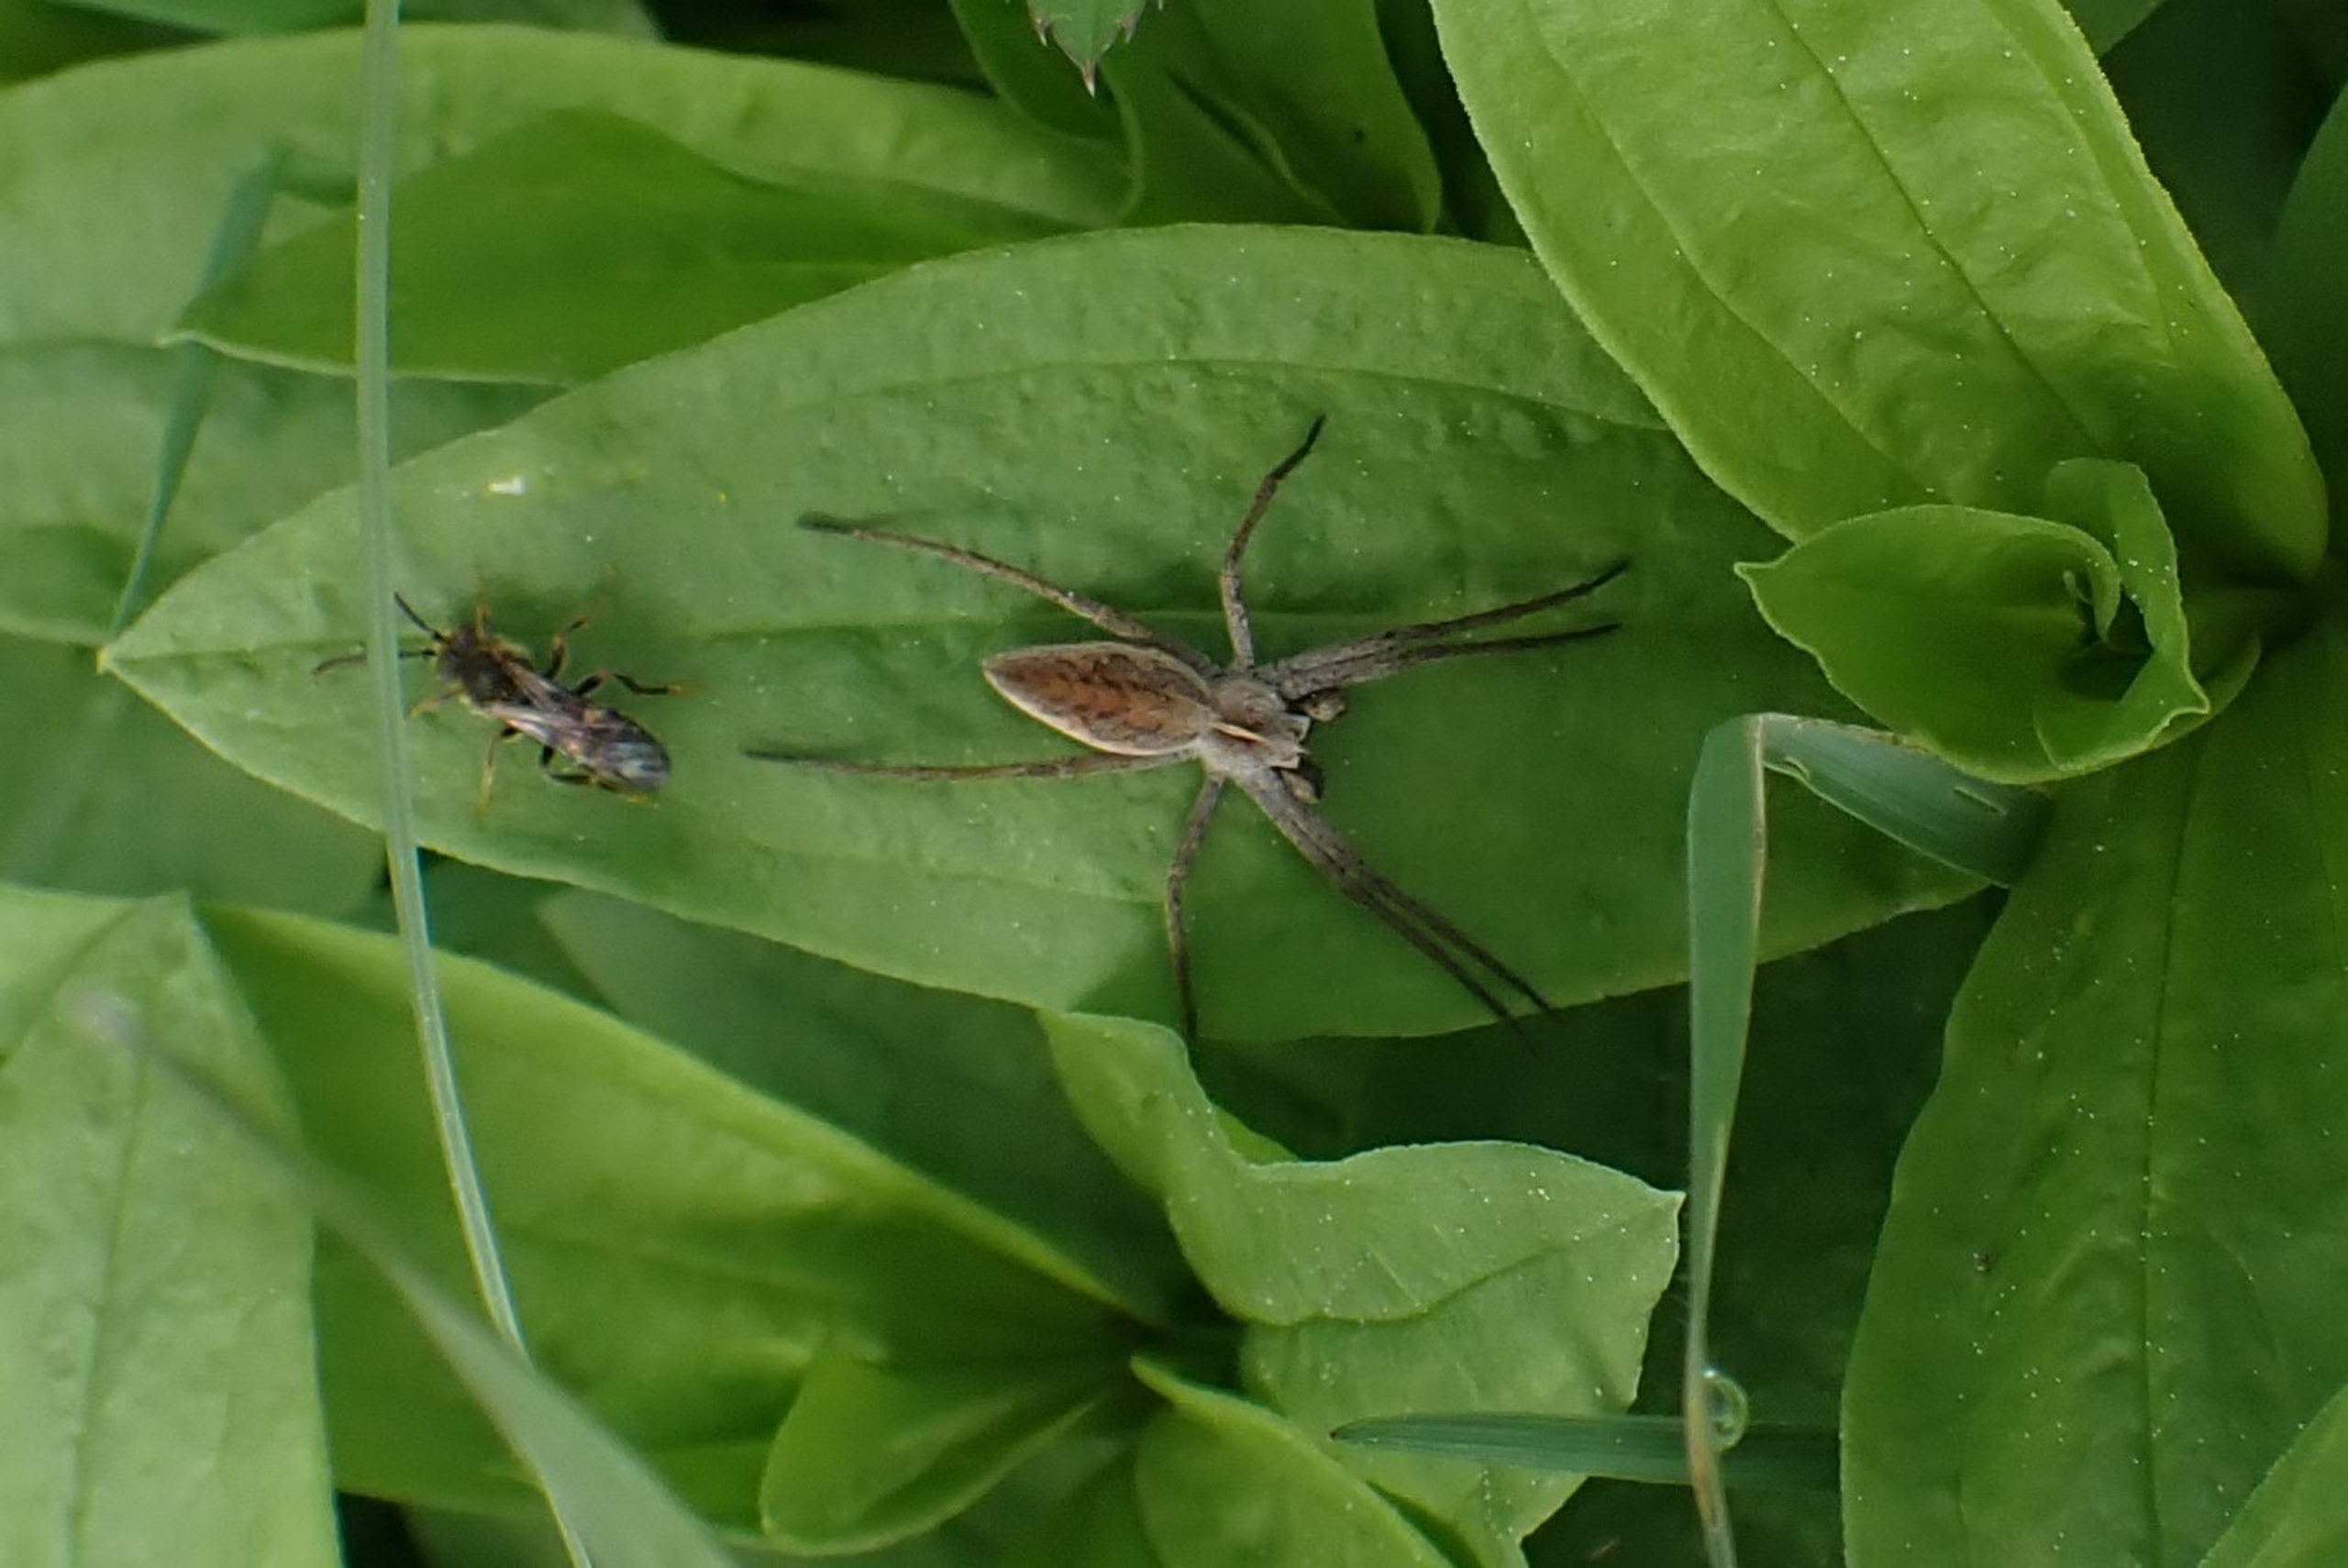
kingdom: Animalia
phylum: Arthropoda
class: Arachnida
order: Araneae
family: Pisauridae
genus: Pisaura
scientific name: Pisaura mirabilis
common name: Almindelig rovedderkop
